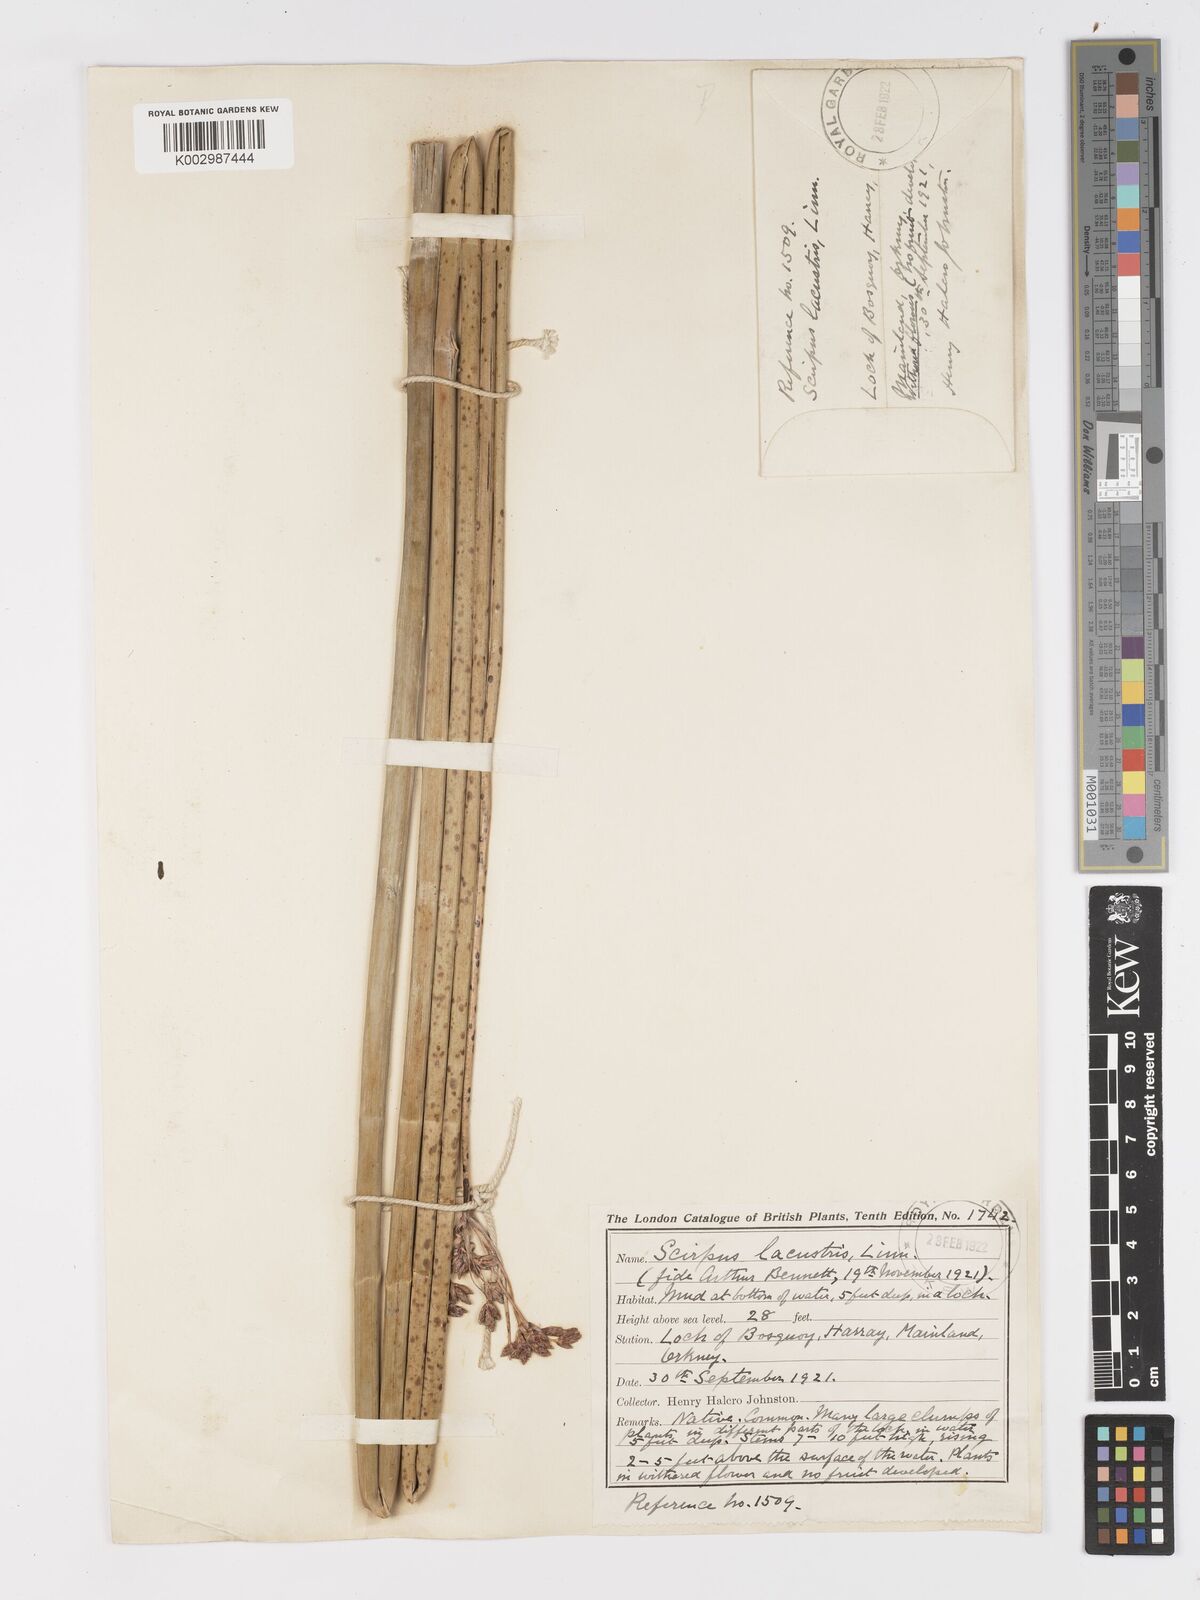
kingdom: Plantae
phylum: Tracheophyta
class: Liliopsida
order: Poales
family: Cyperaceae
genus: Schoenoplectus
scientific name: Schoenoplectus lacustris
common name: Common club-rush
